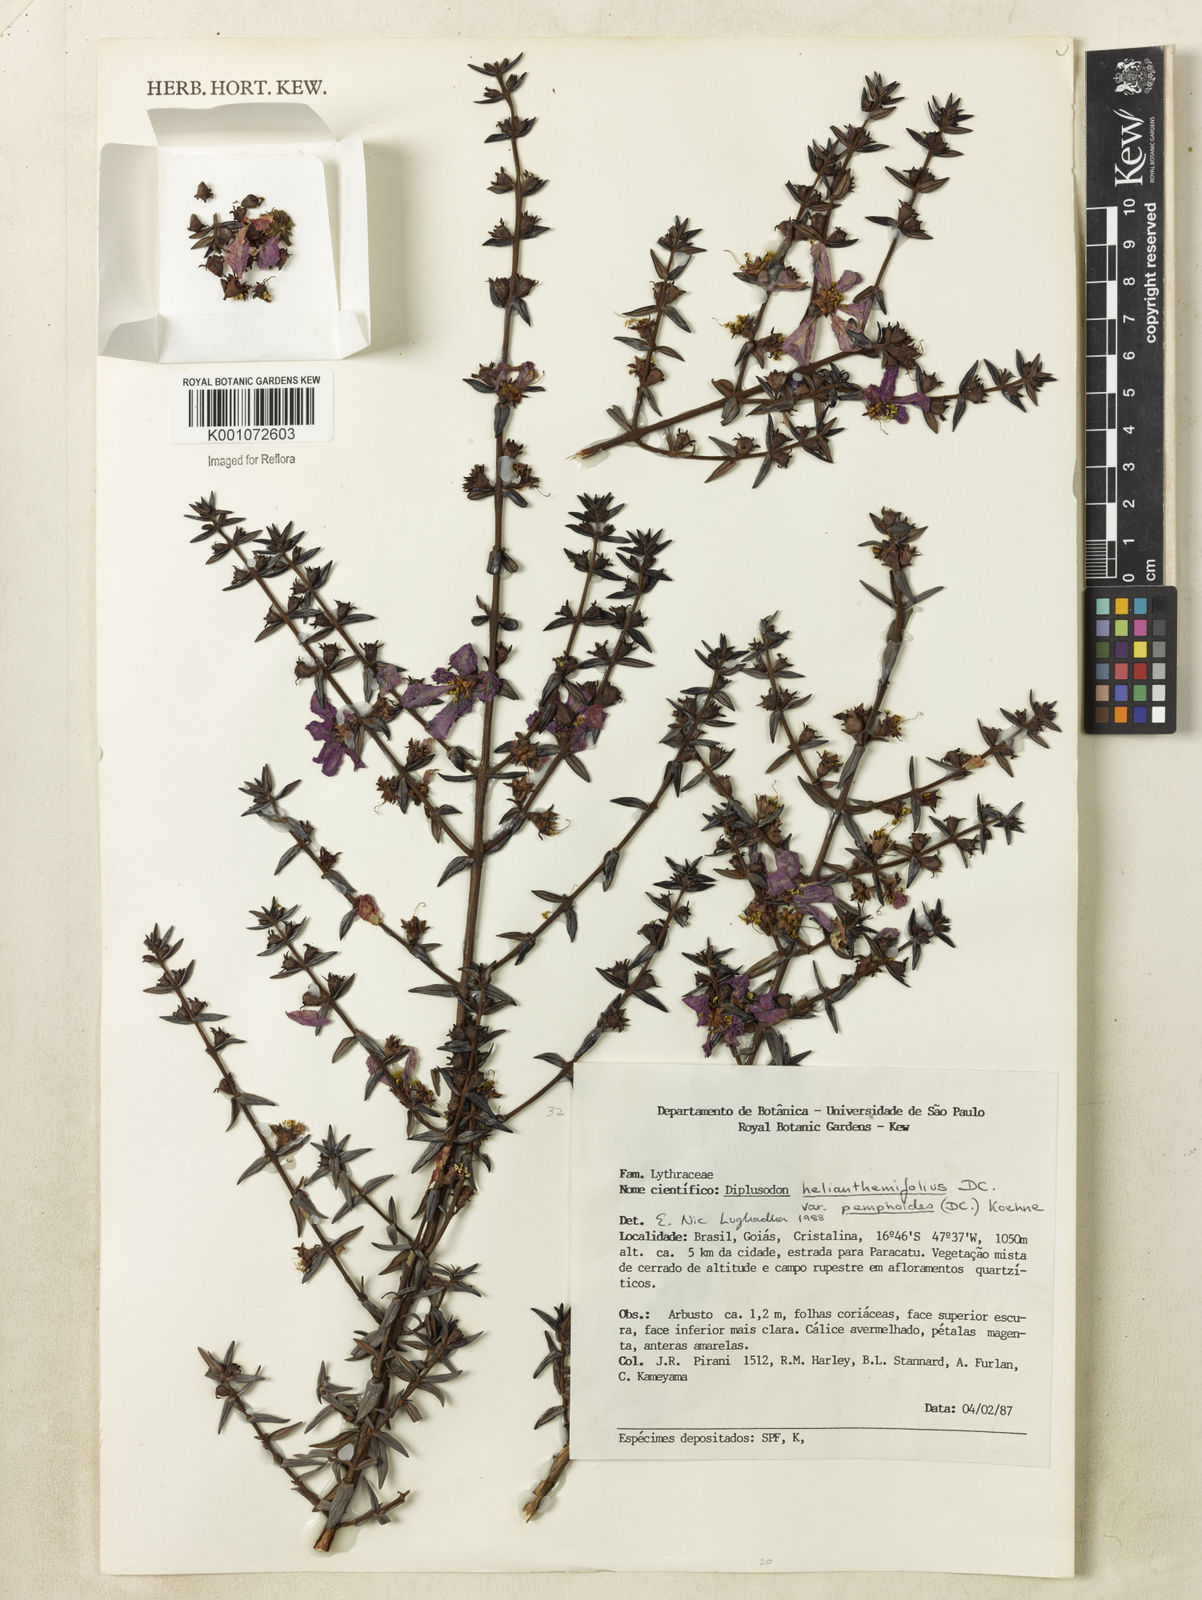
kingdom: Plantae
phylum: Tracheophyta
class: Magnoliopsida
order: Myrtales
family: Lythraceae
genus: Diplusodon
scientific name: Diplusodon helianthemifolius
